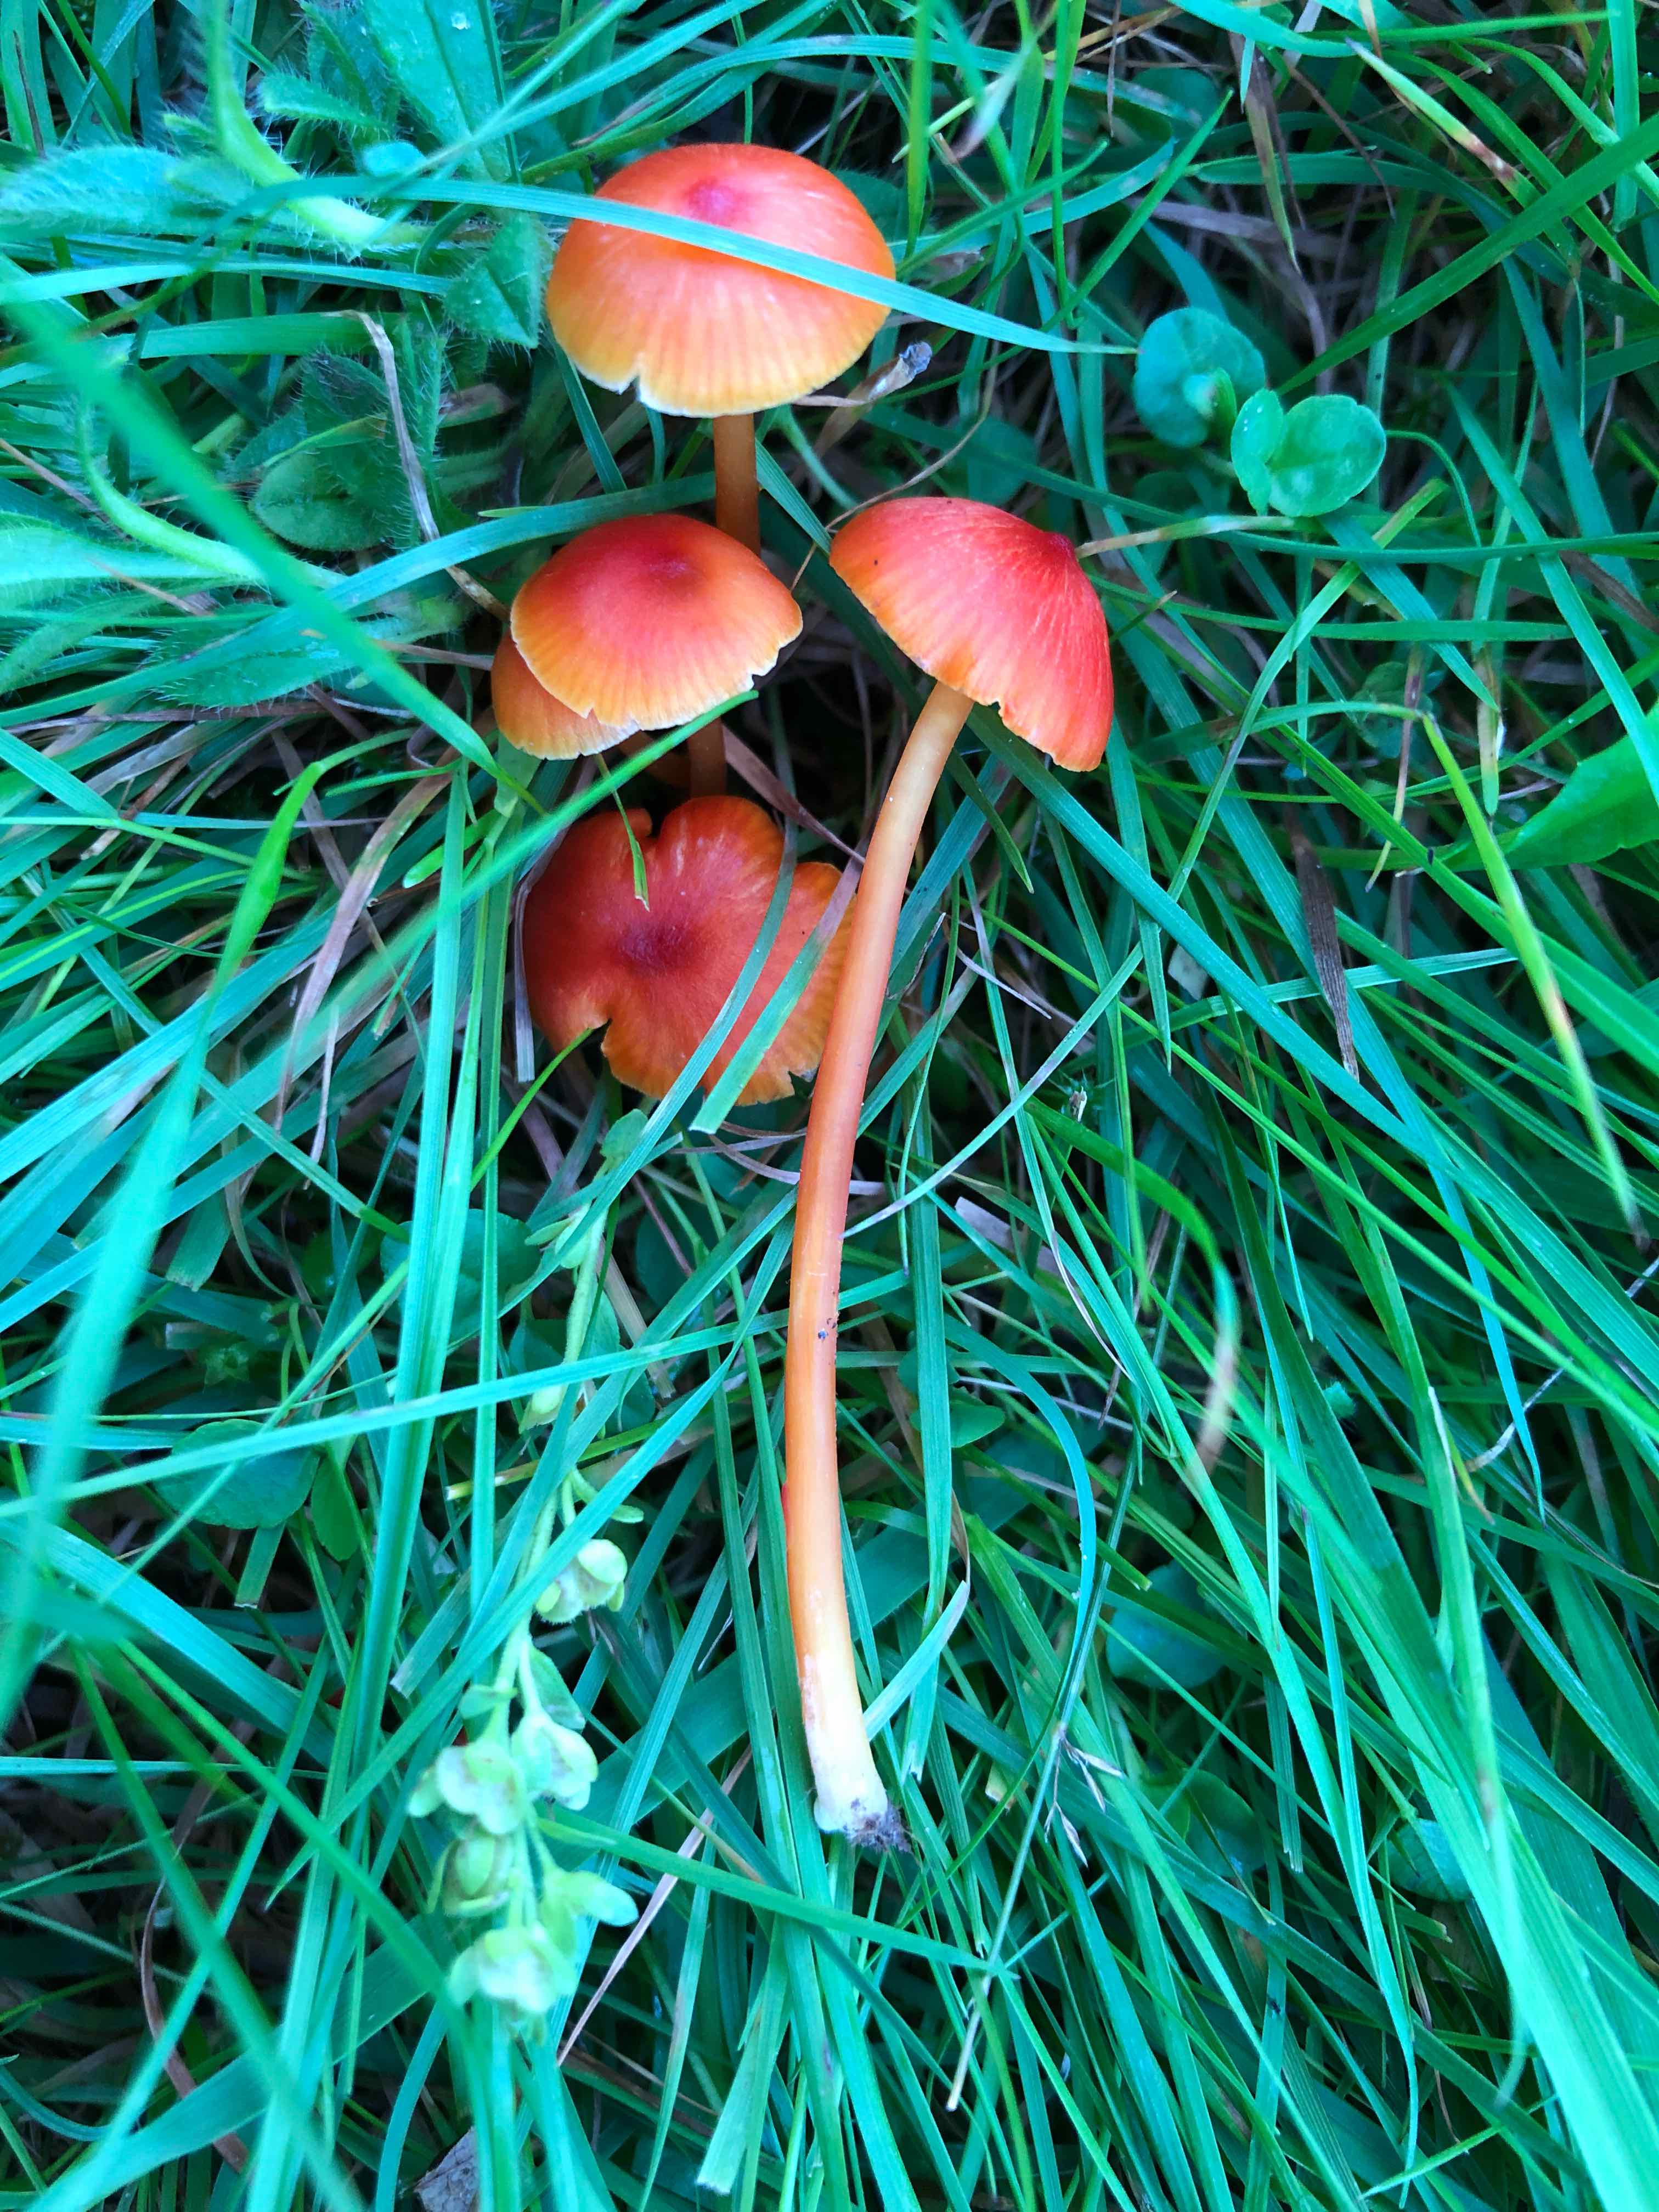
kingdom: Fungi
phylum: Basidiomycota
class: Agaricomycetes
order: Agaricales
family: Hygrophoraceae
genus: Hygrocybe
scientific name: Hygrocybe subpapillata
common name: papil-vokshat
